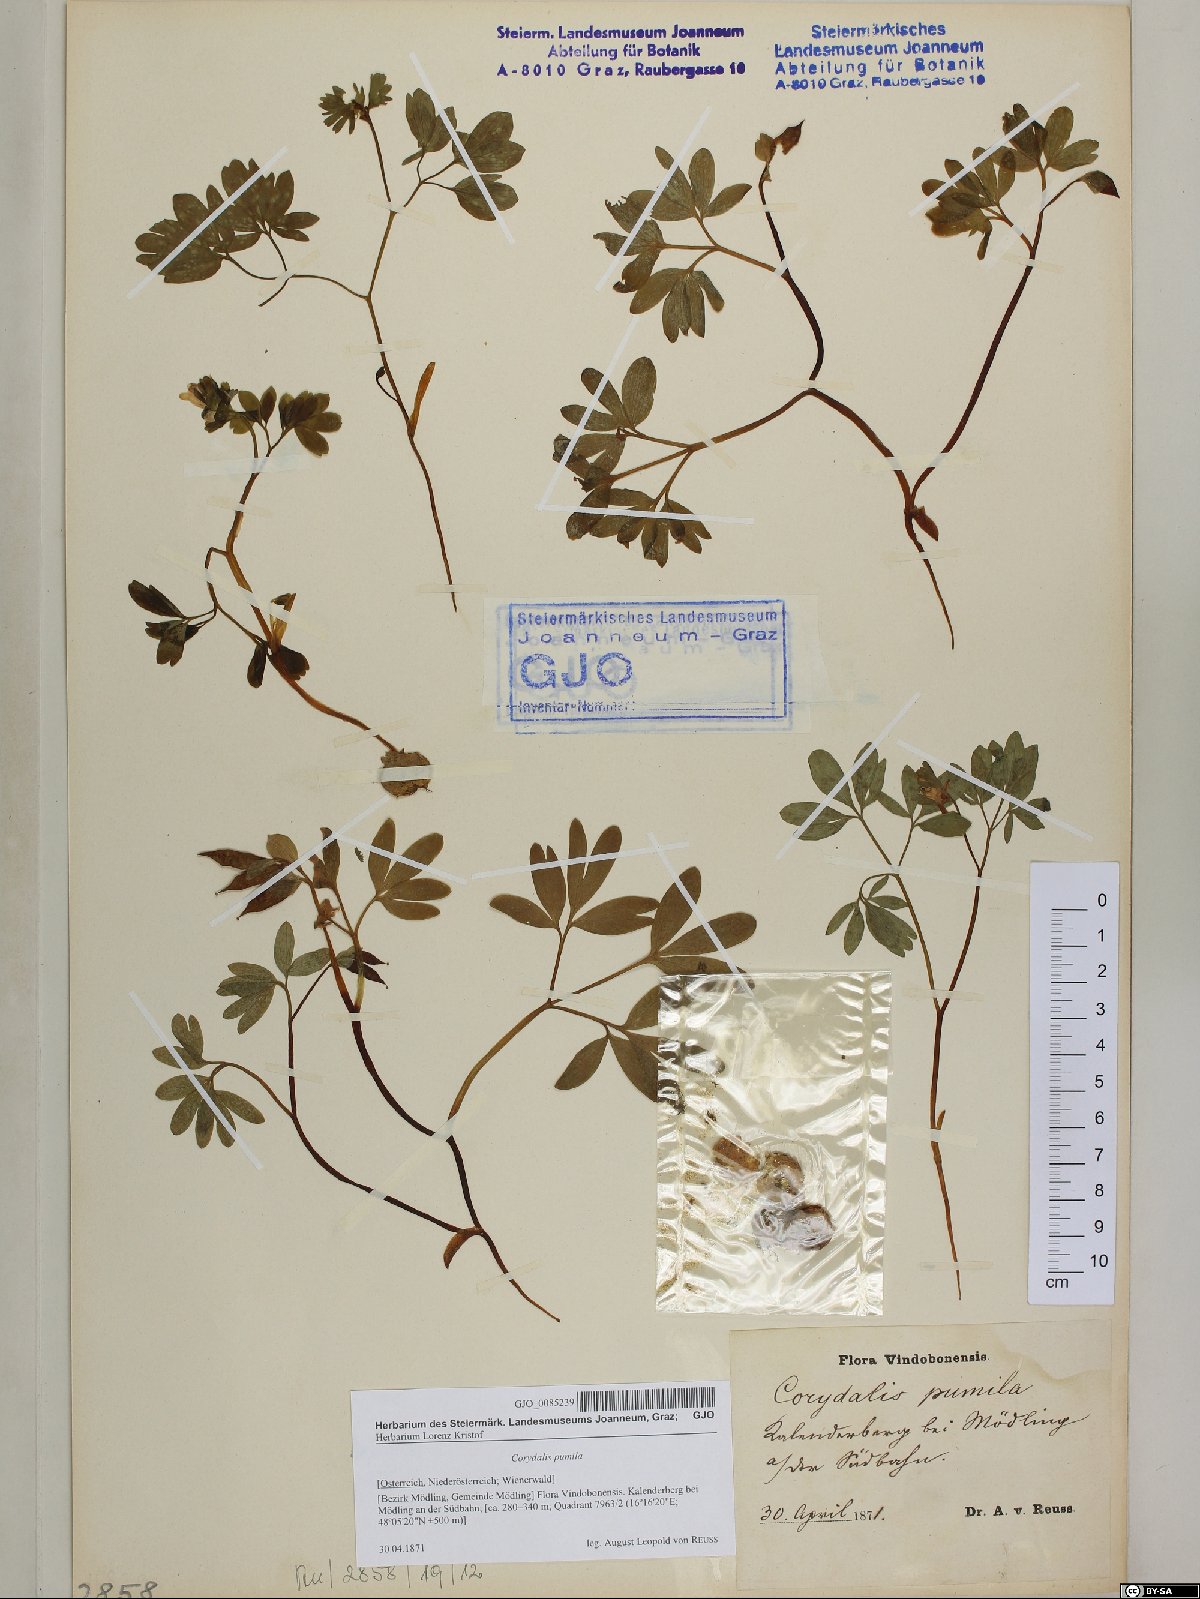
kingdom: Plantae
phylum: Tracheophyta
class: Magnoliopsida
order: Ranunculales
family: Papaveraceae
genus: Corydalis
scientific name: Corydalis pumila
